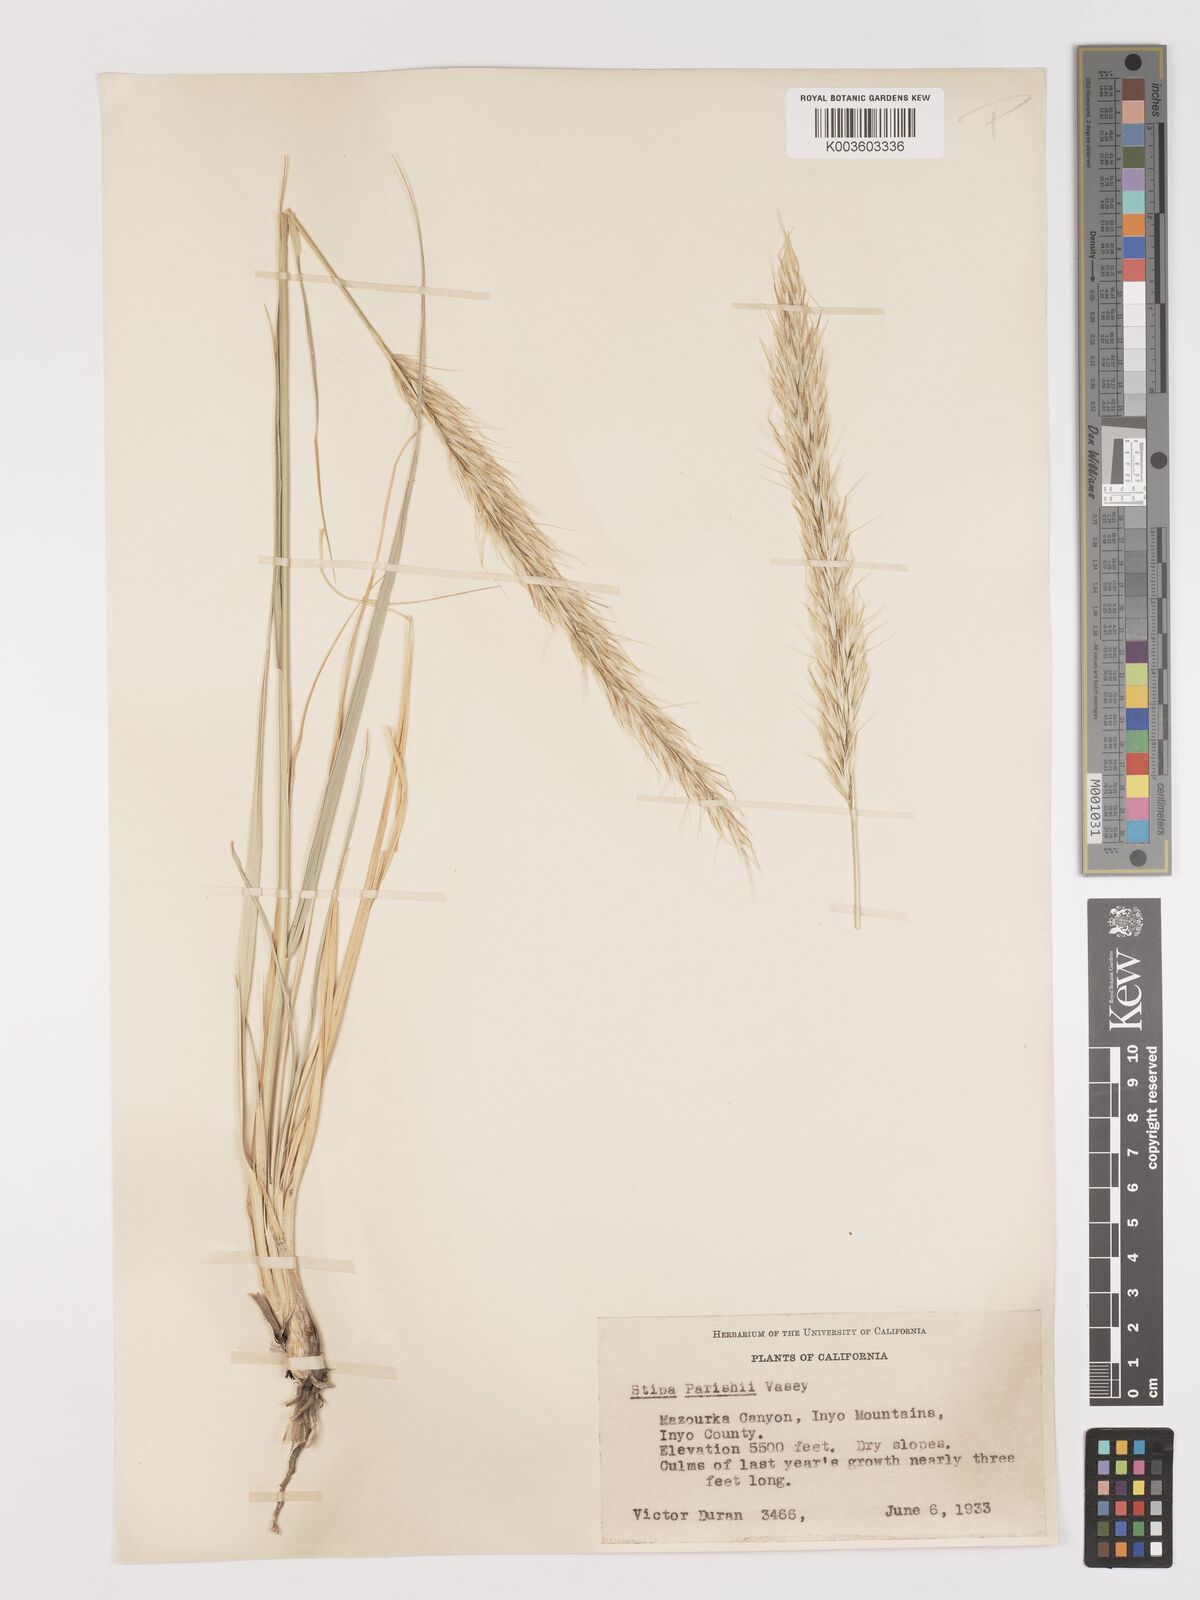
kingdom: Plantae
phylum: Tracheophyta
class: Liliopsida
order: Poales
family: Poaceae
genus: Hesperostipa
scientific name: Hesperostipa comata
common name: Needle-and-thread grass
